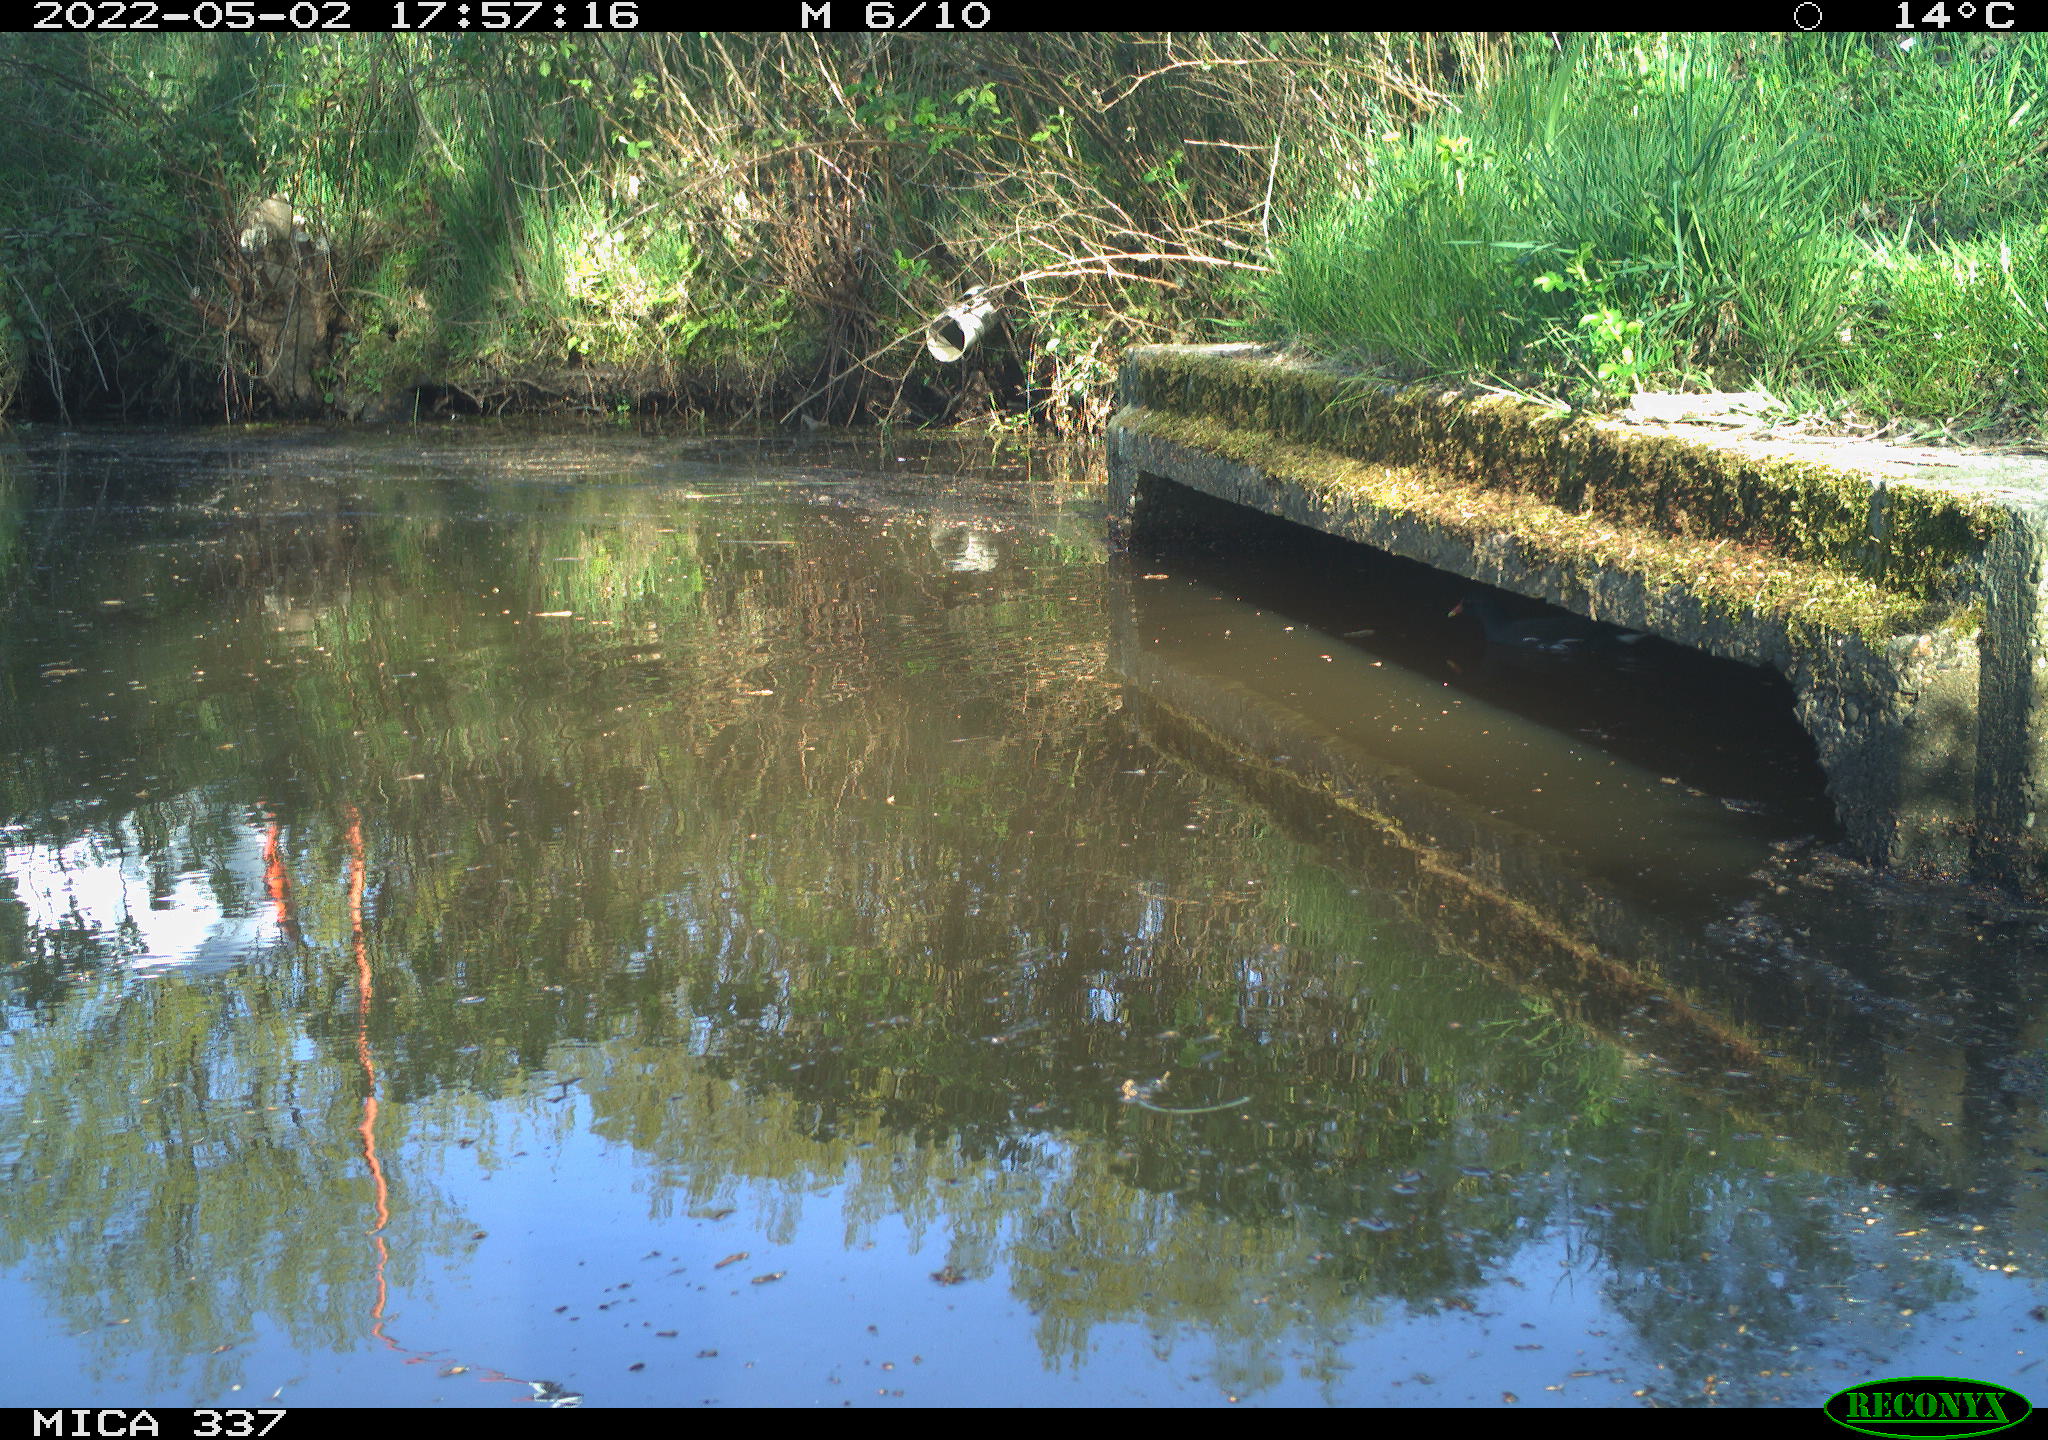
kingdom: Animalia
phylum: Chordata
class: Aves
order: Gruiformes
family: Rallidae
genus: Gallinula
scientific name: Gallinula chloropus
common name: Common moorhen
